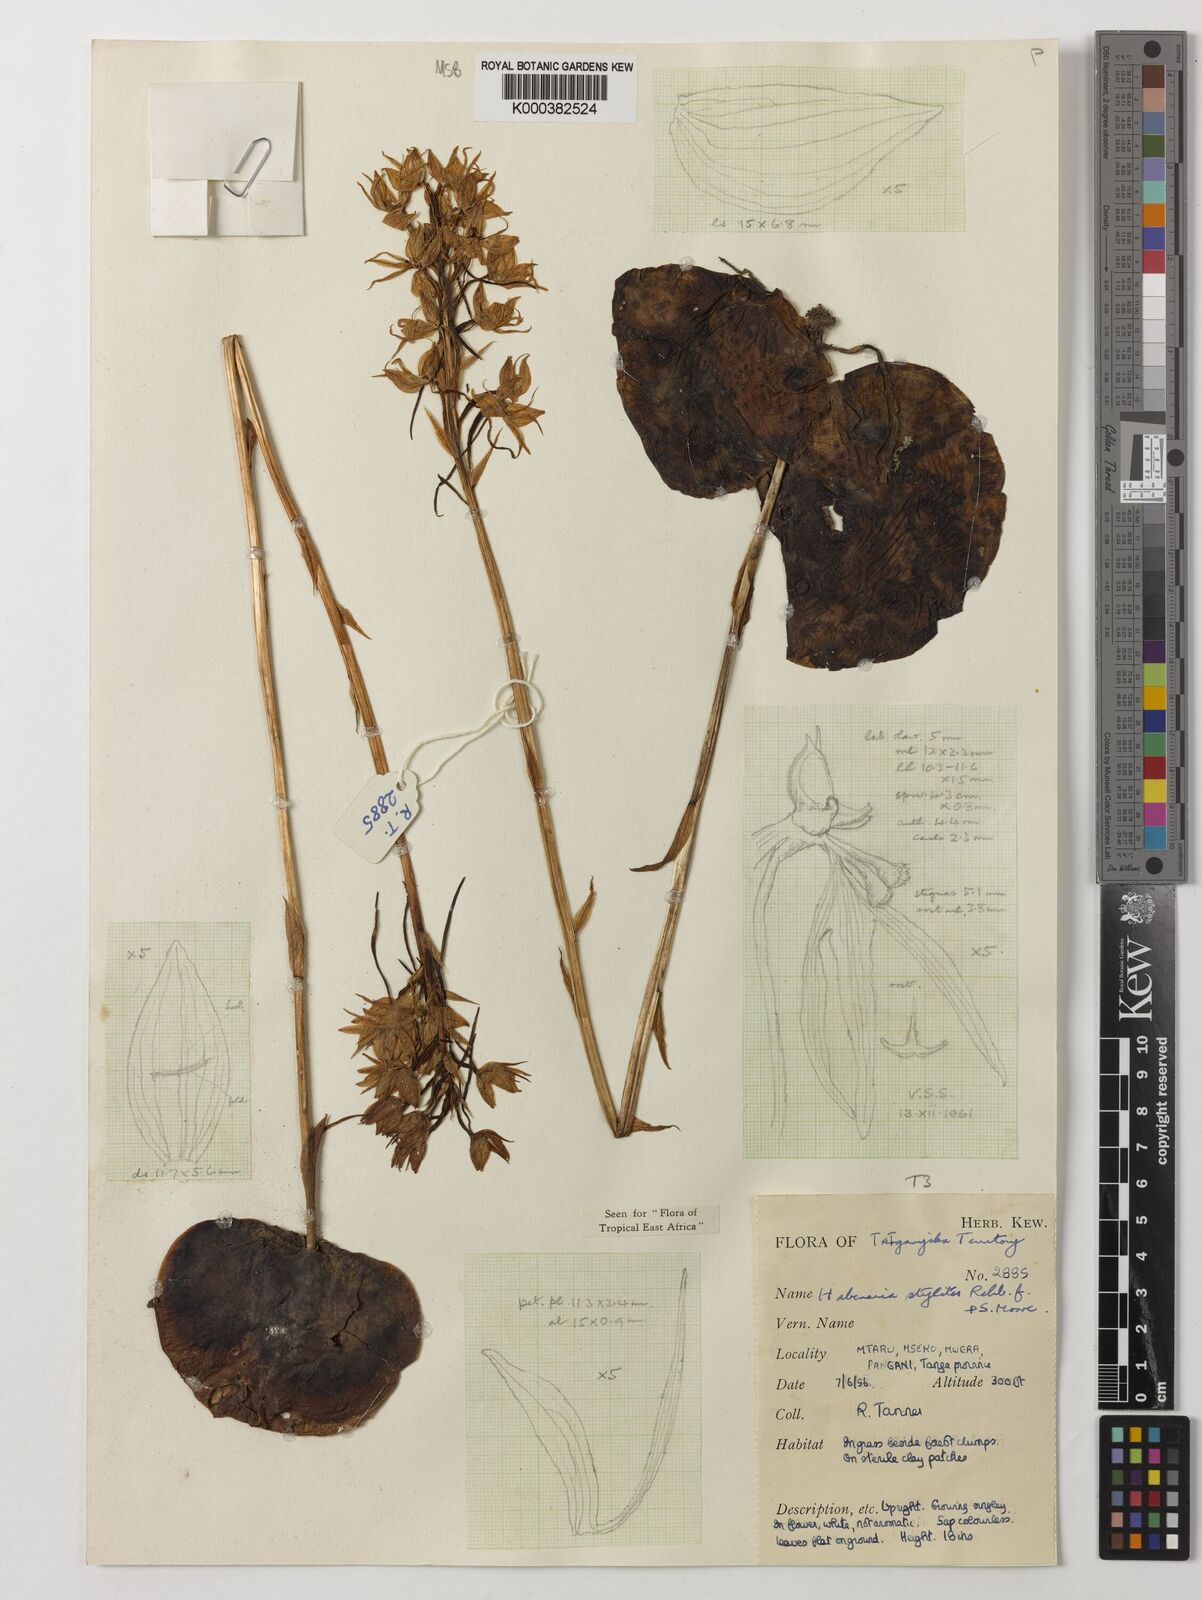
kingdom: Plantae
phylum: Tracheophyta
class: Liliopsida
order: Asparagales
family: Orchidaceae
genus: Habenaria
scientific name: Habenaria stylites
